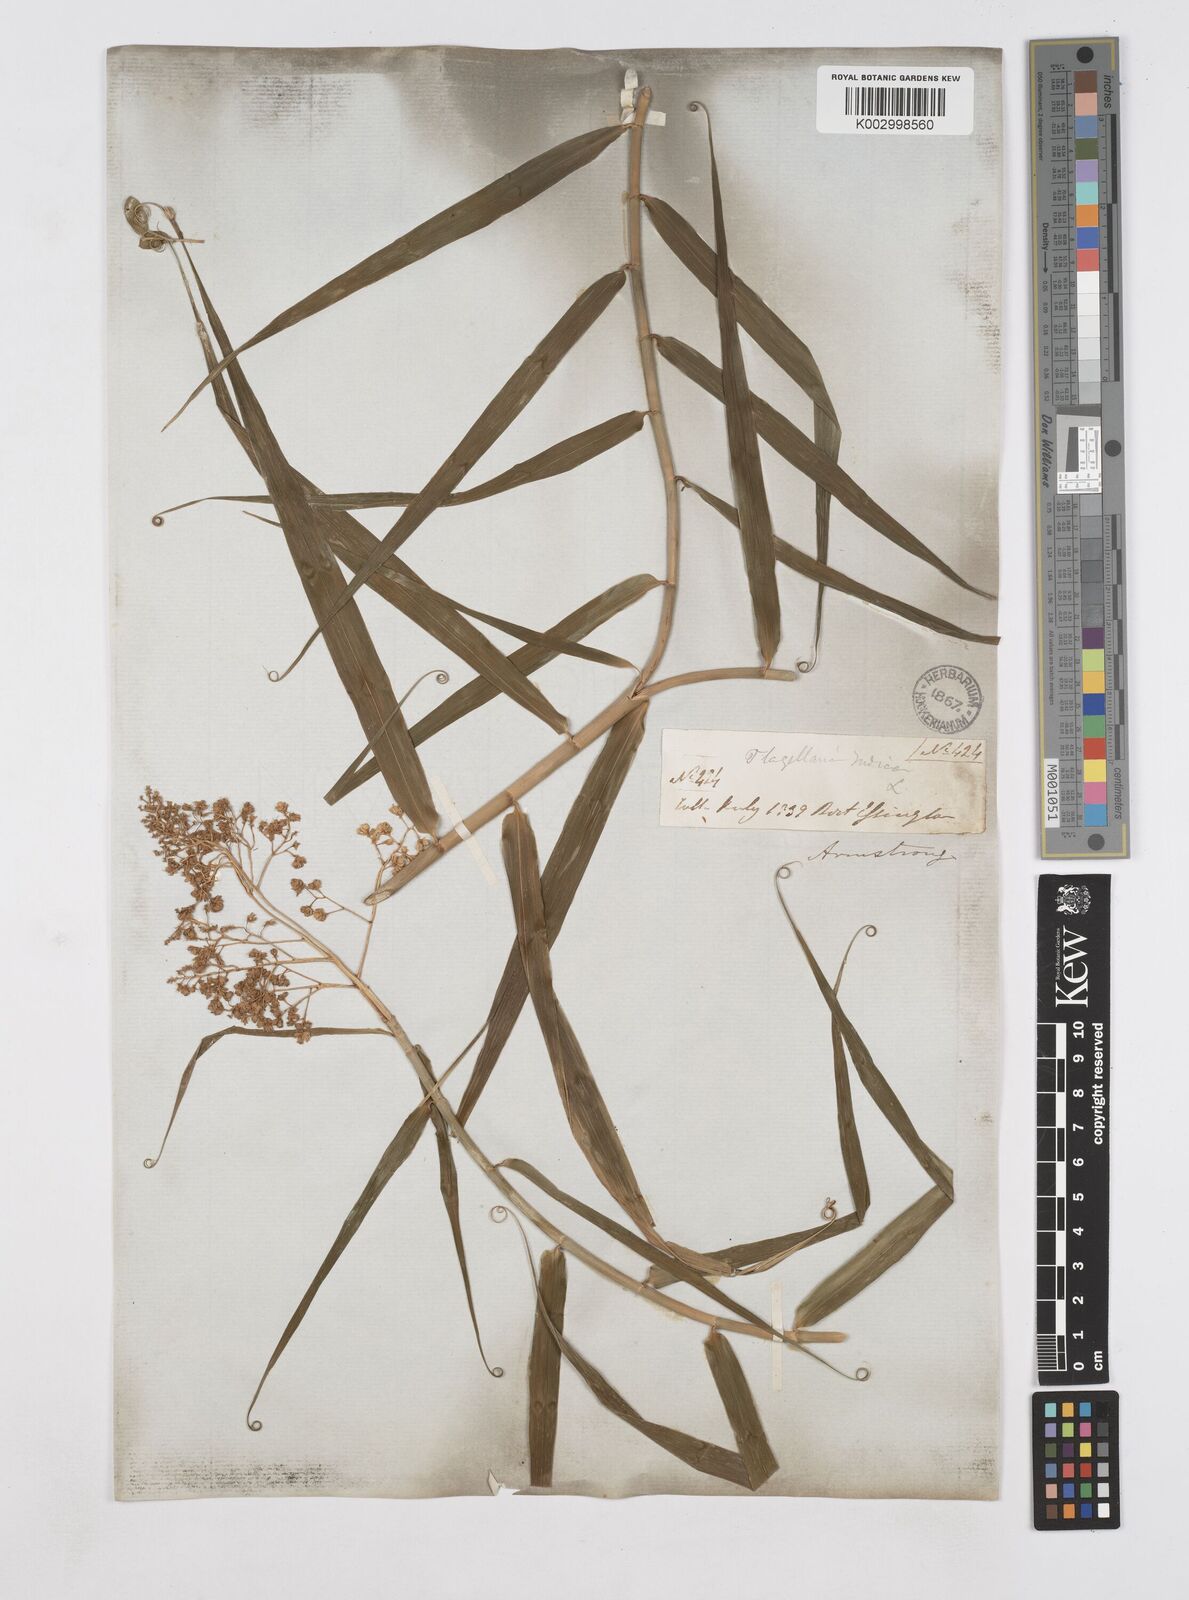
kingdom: Plantae
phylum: Tracheophyta
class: Liliopsida
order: Poales
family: Flagellariaceae
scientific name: Flagellariaceae
